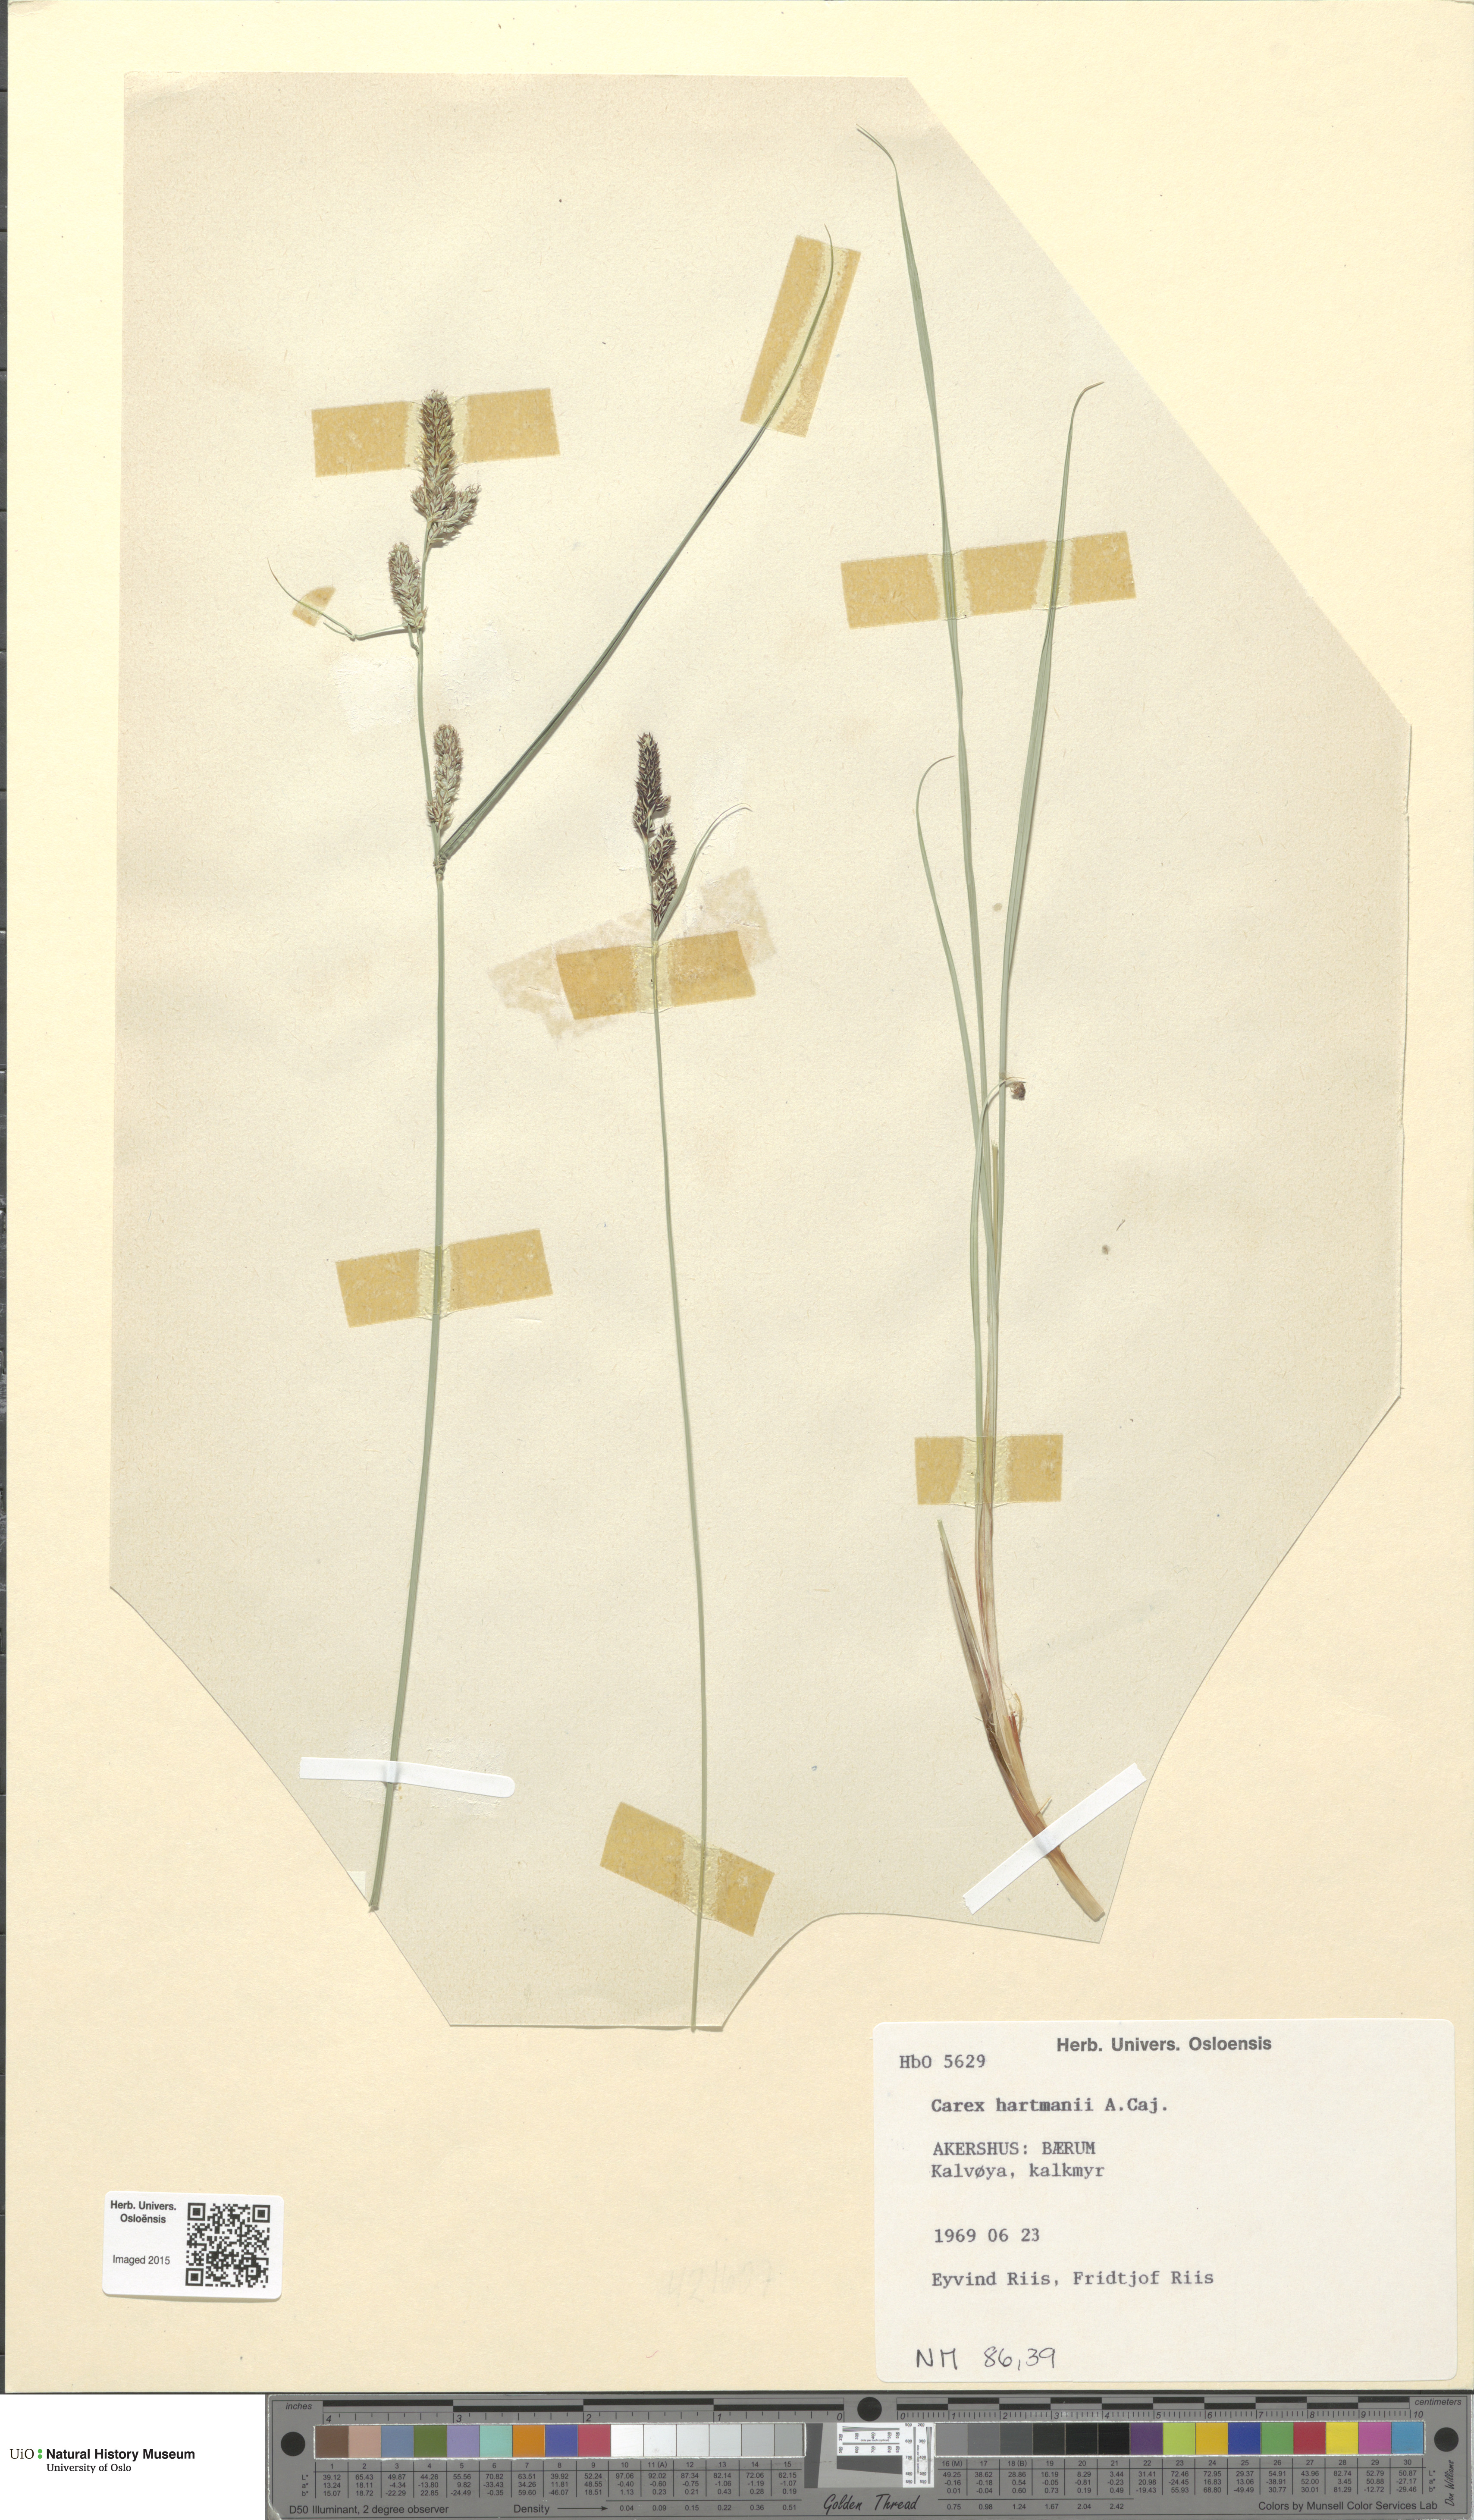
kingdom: Plantae
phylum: Tracheophyta
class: Liliopsida
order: Poales
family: Cyperaceae
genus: Carex
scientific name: Carex hartmaniorum
